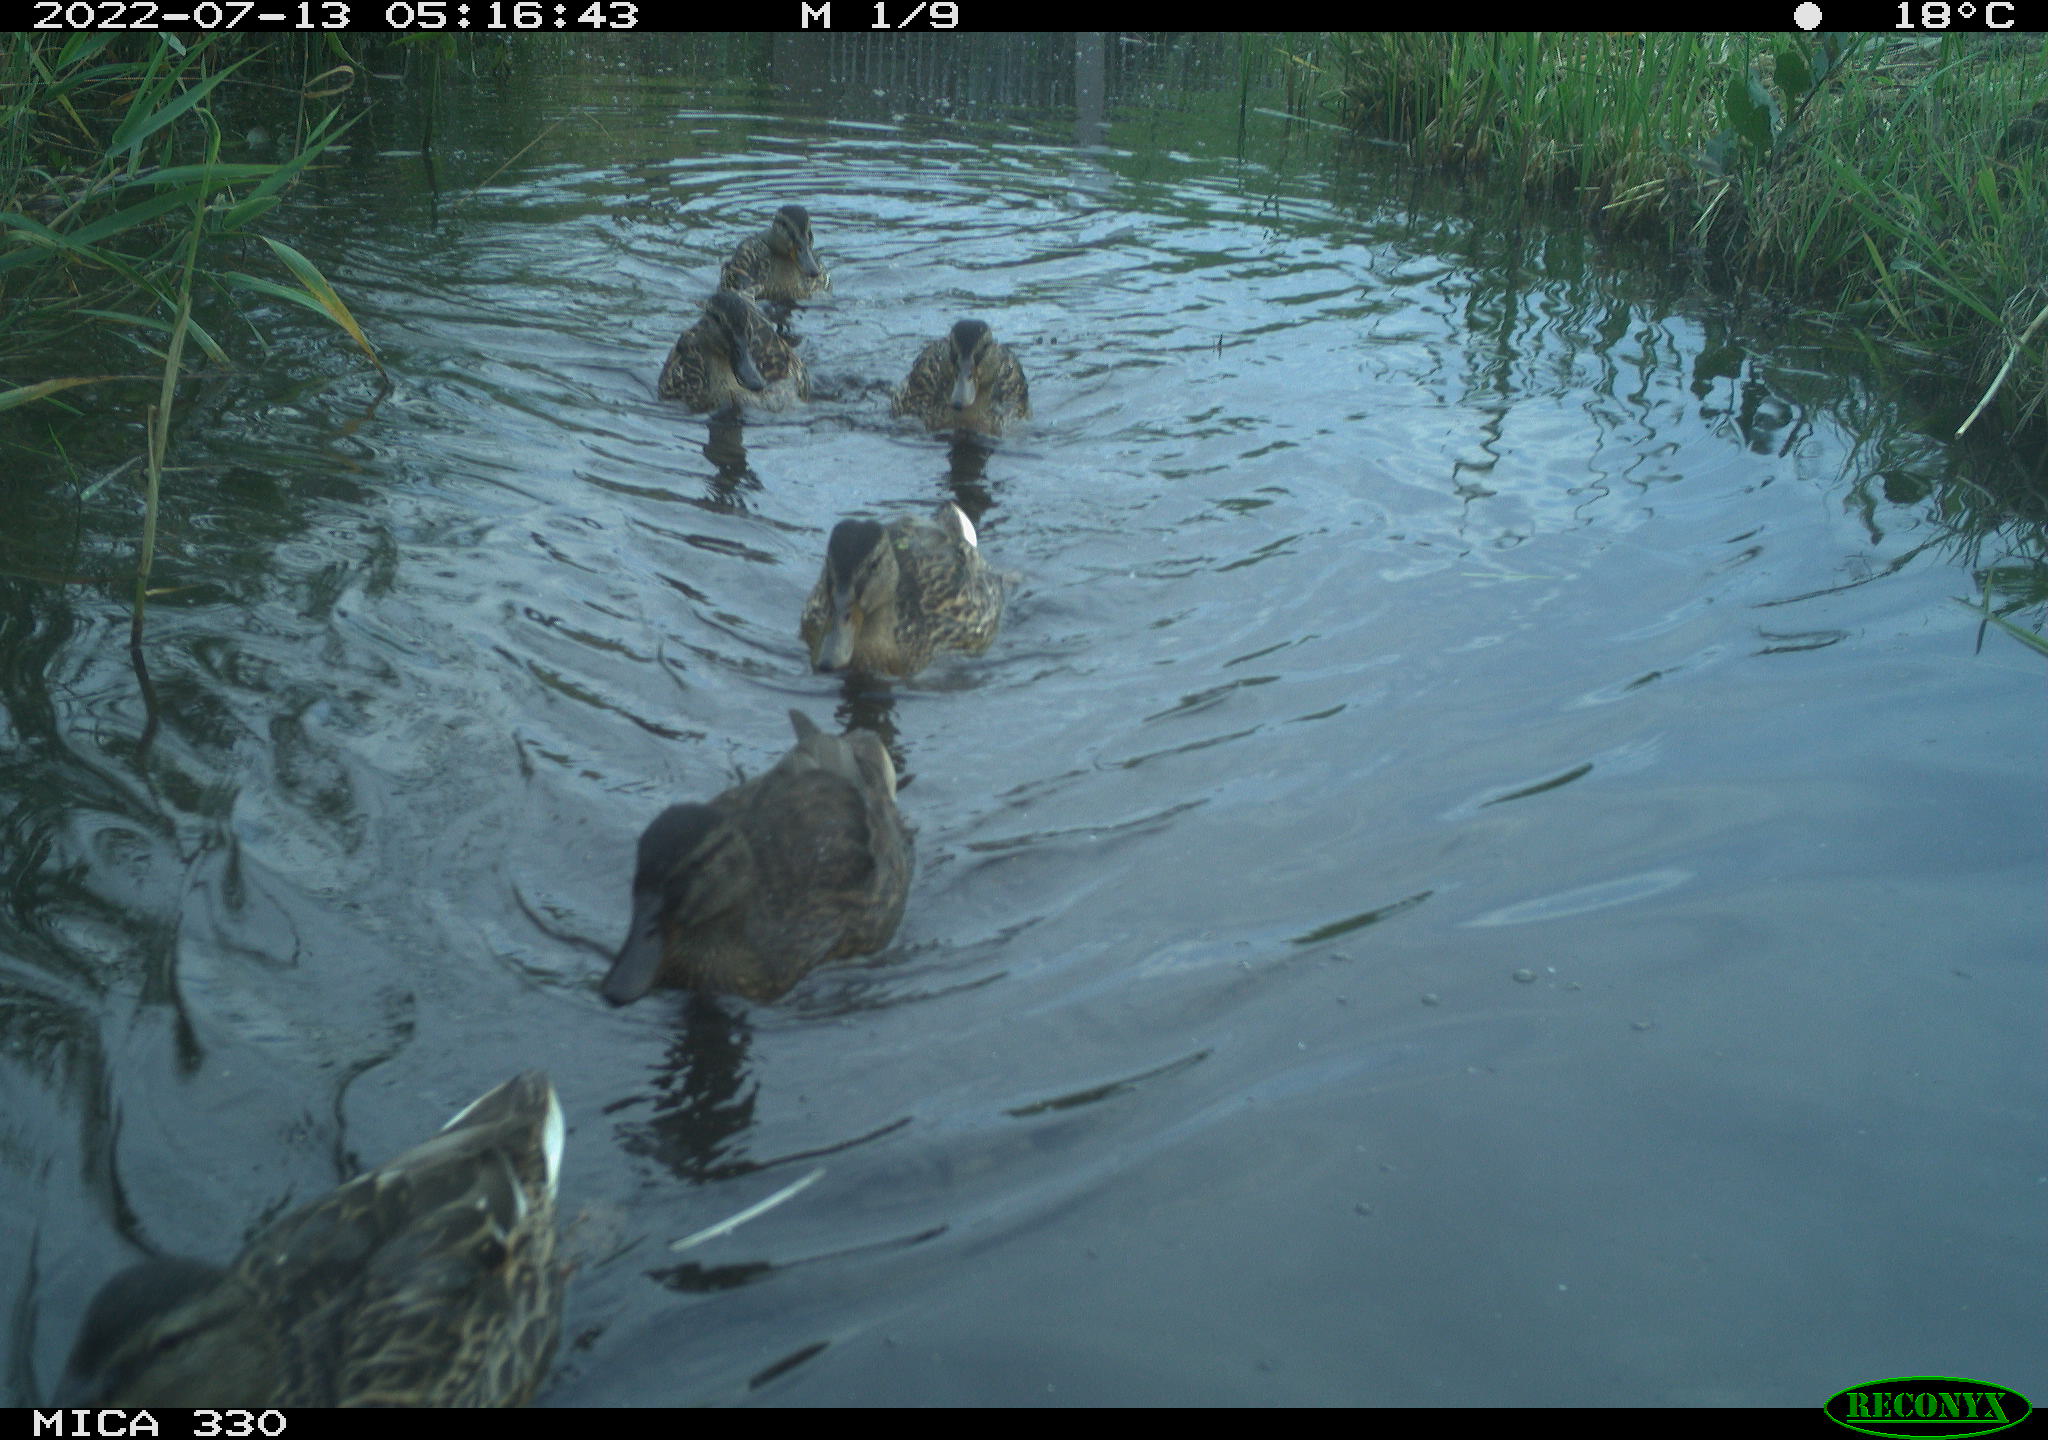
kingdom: Animalia
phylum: Chordata
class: Aves
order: Anseriformes
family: Anatidae
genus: Anas
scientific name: Anas platyrhynchos
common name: Mallard
